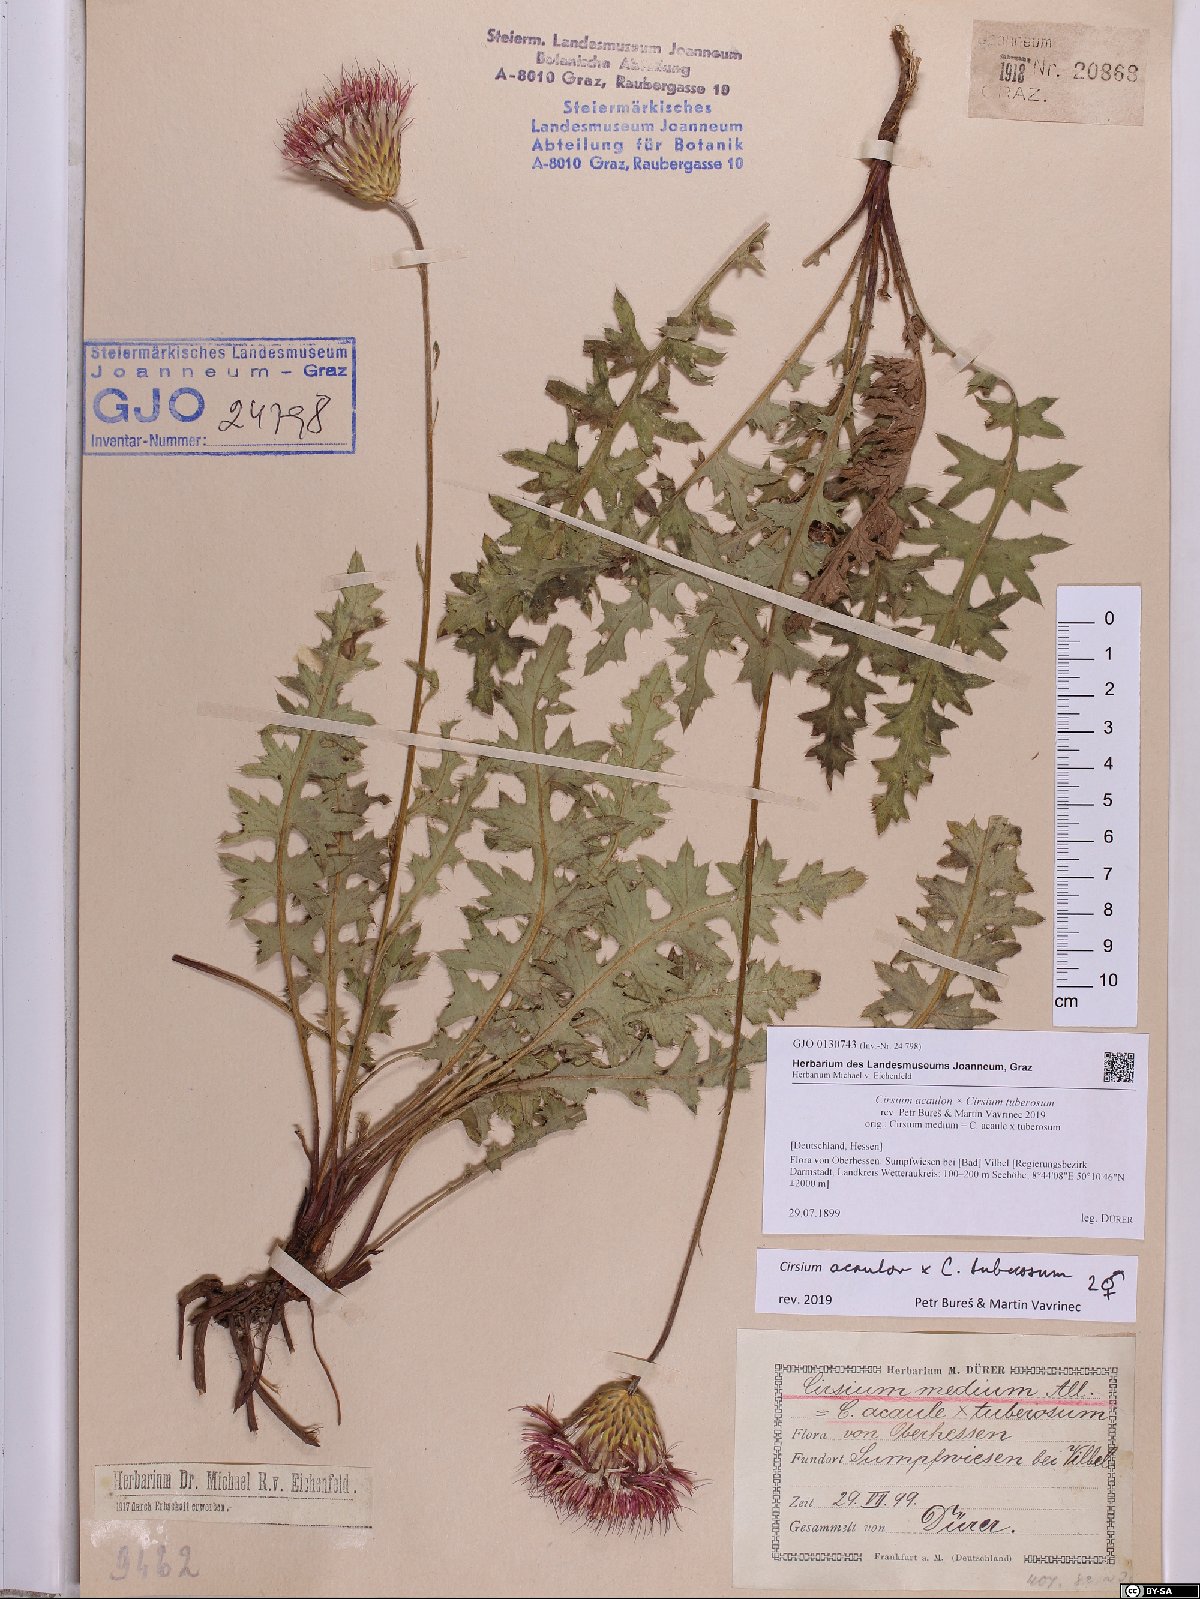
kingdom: Plantae
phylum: Tracheophyta
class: Magnoliopsida
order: Asterales
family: Asteraceae
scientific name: Asteraceae
